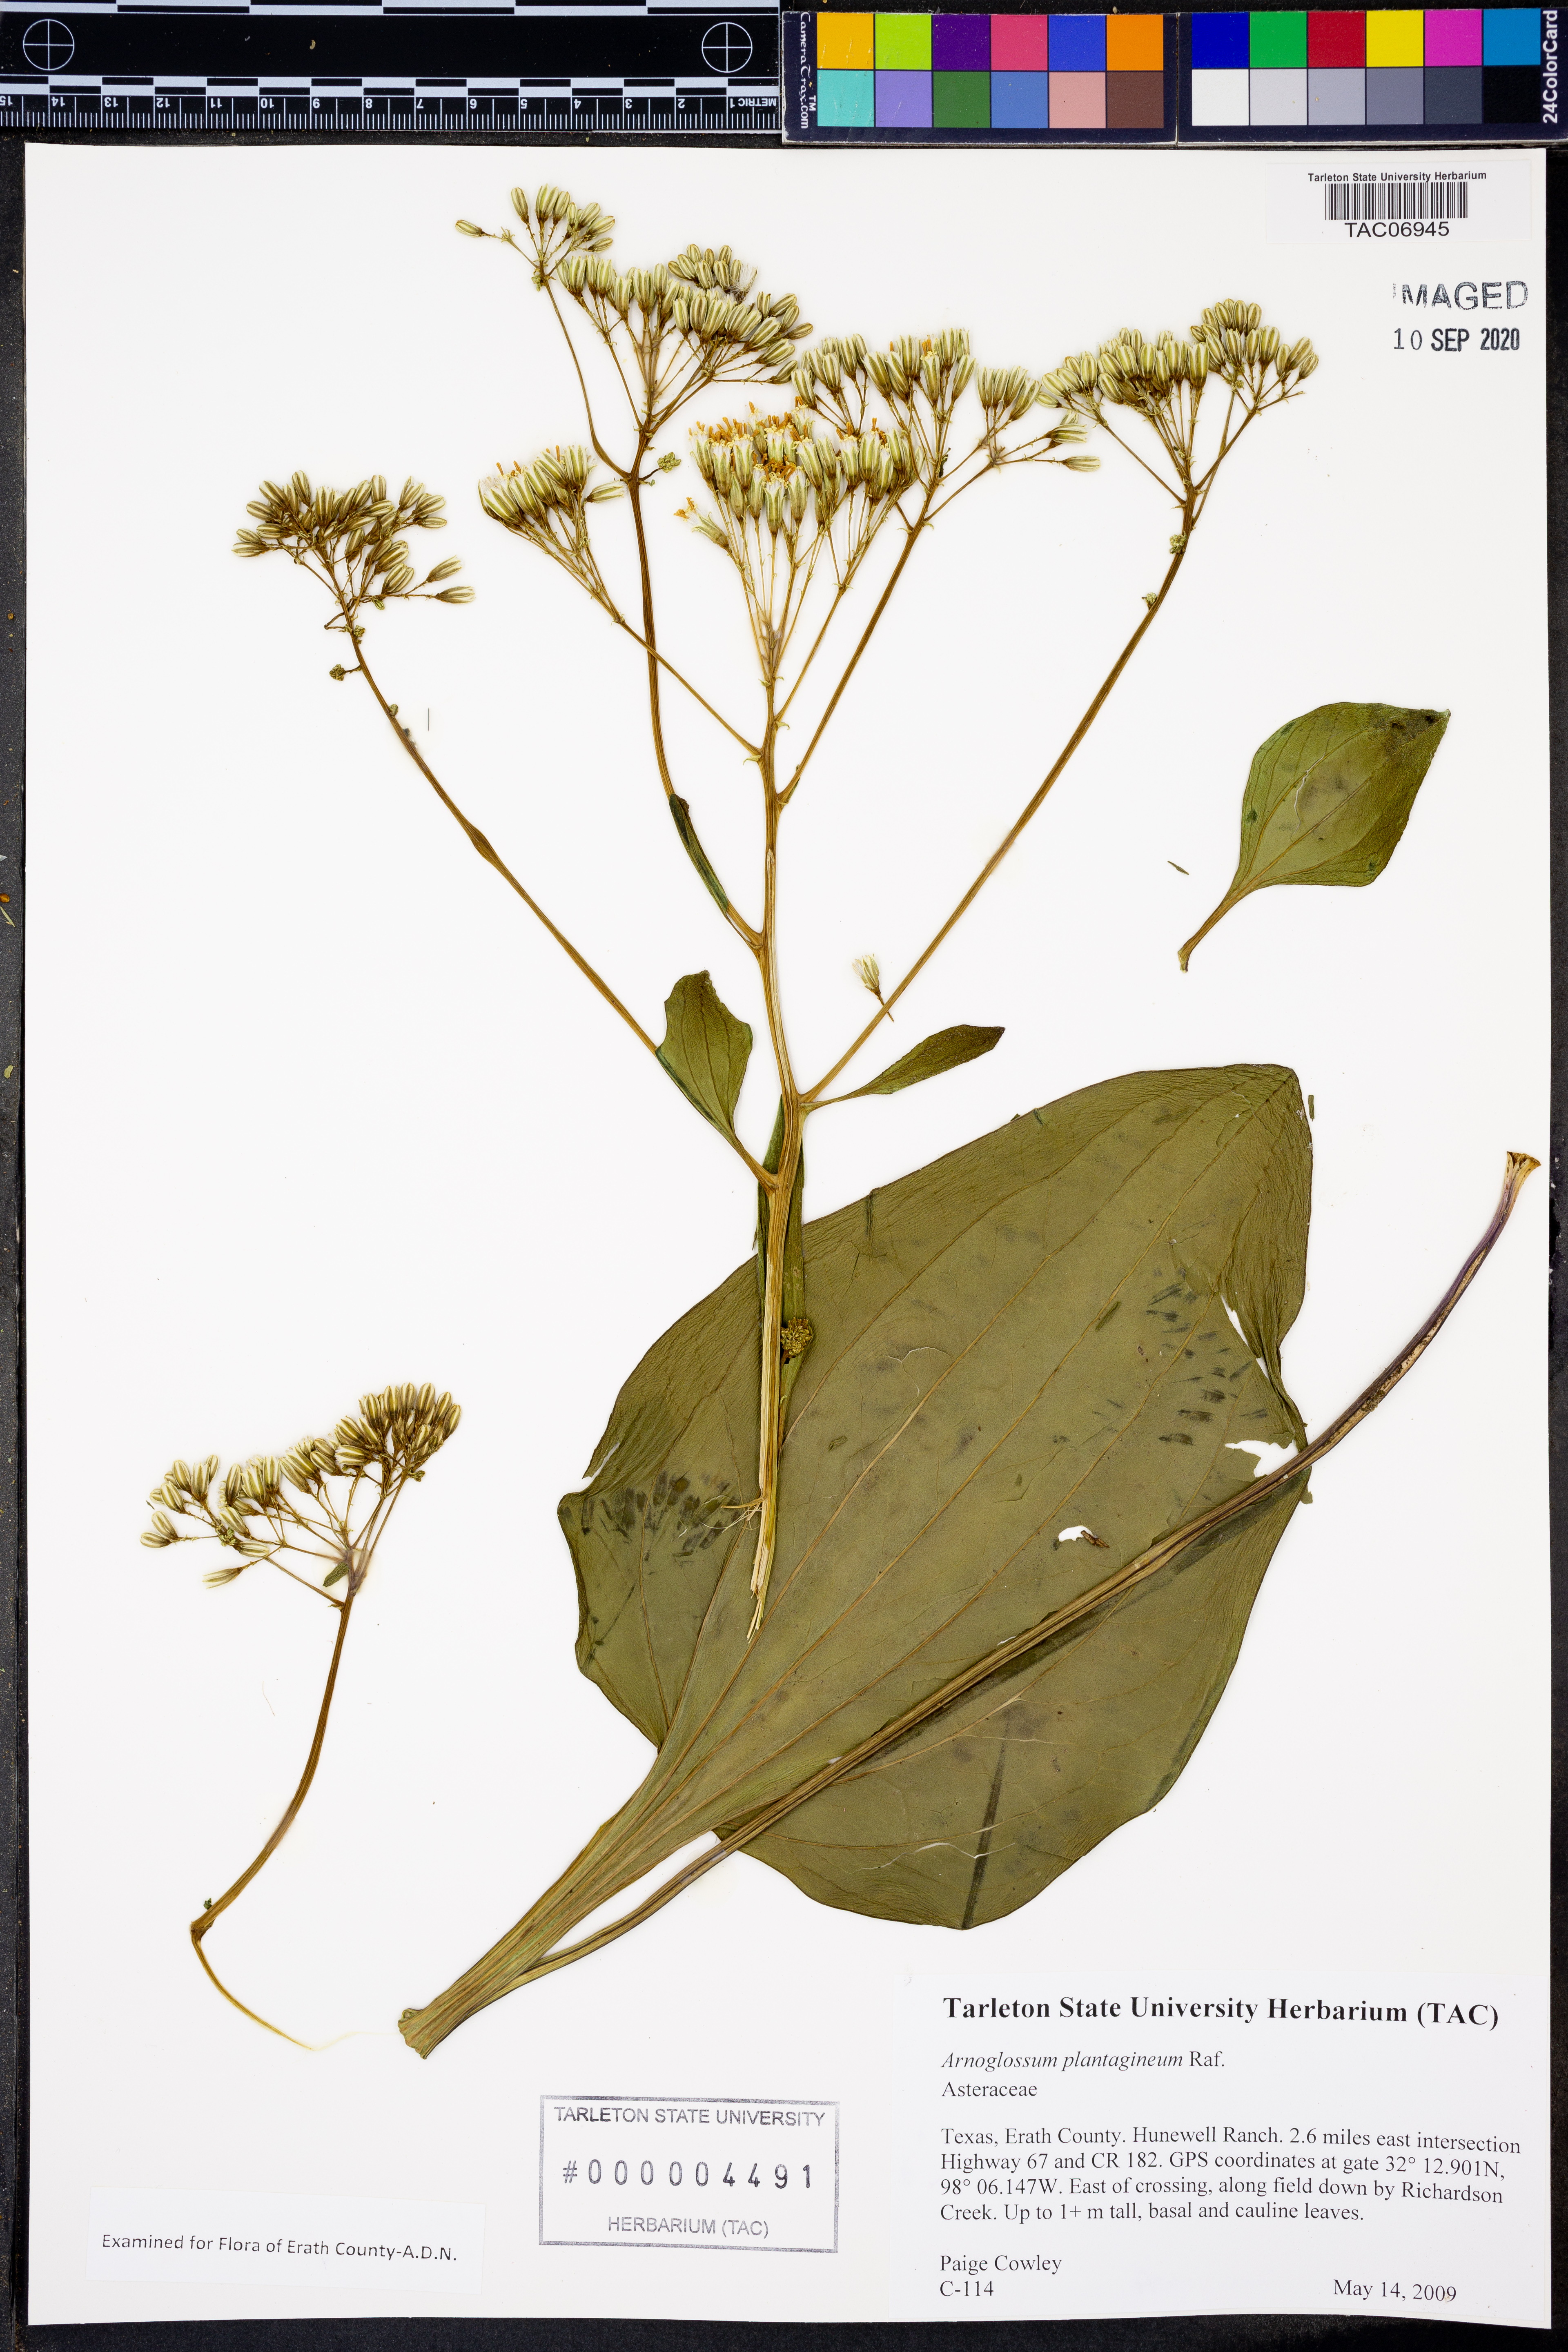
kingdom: Plantae
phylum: Tracheophyta
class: Magnoliopsida
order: Asterales
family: Asteraceae
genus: Arnoglossum
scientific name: Arnoglossum plantagineum
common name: Groove-stemmed indian-plantain
